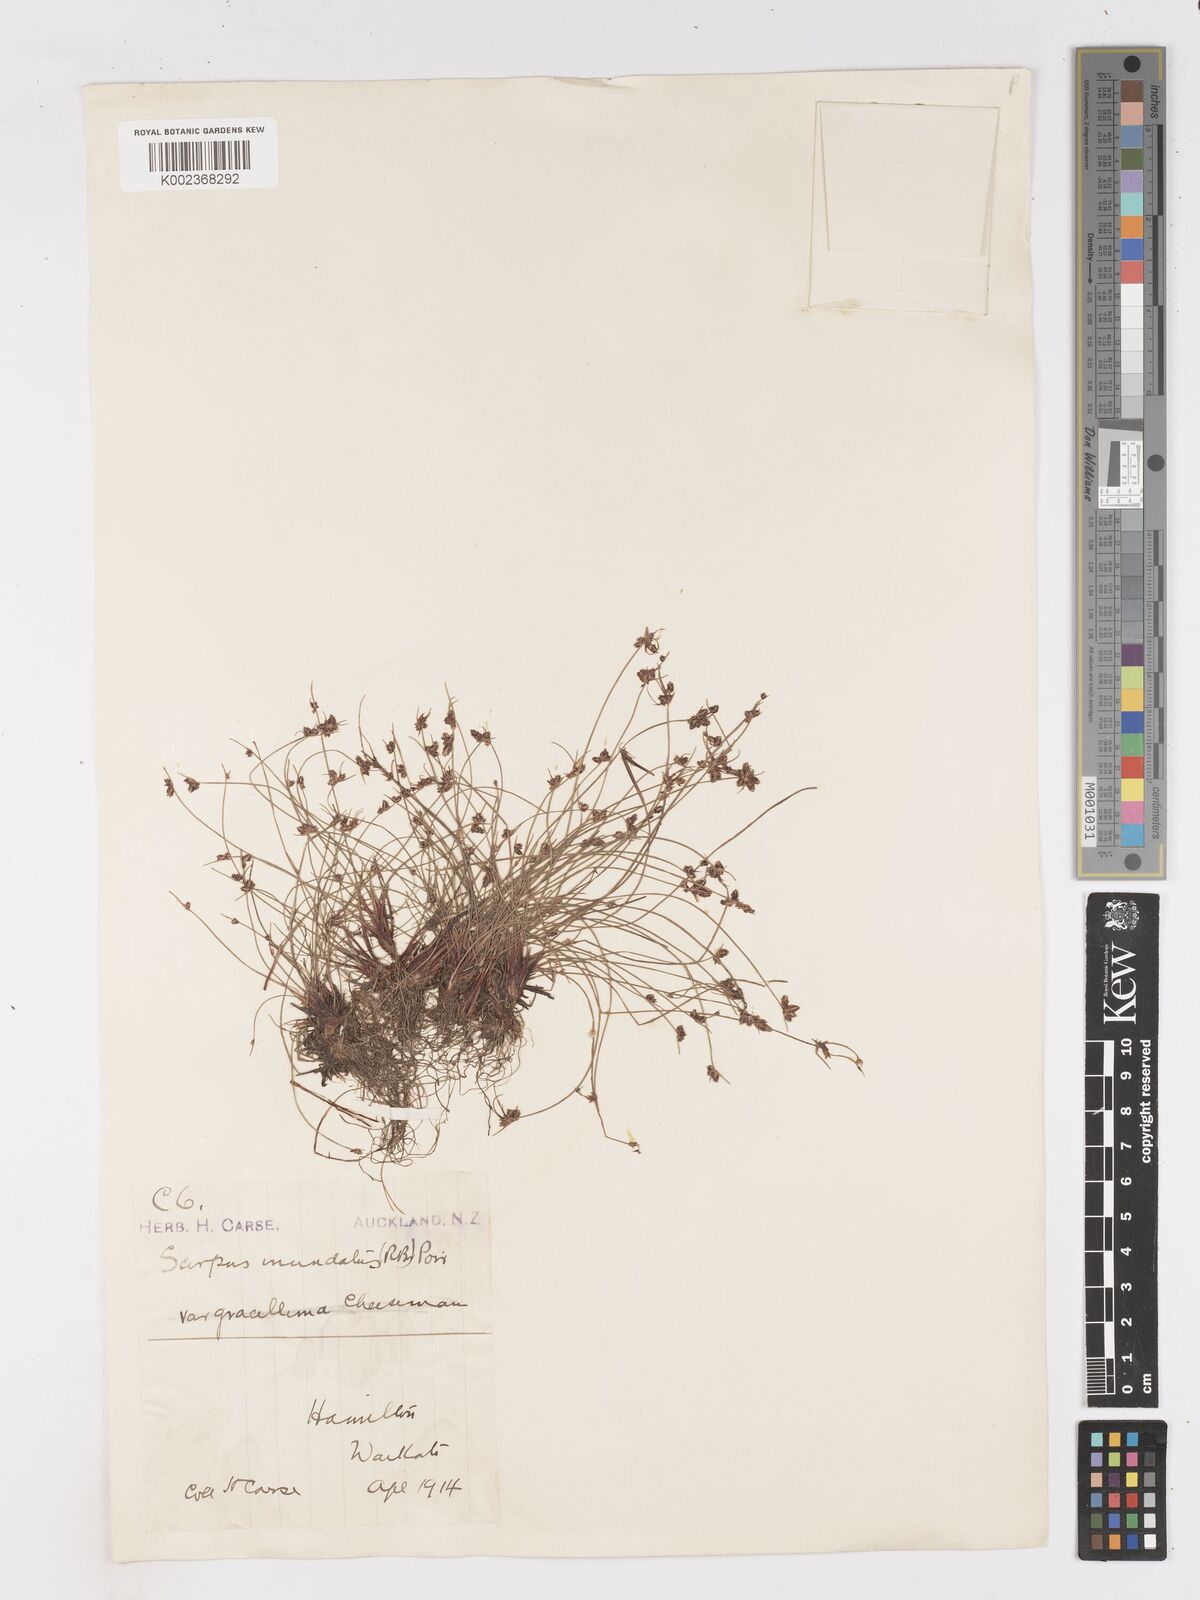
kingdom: Plantae
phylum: Tracheophyta
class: Liliopsida
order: Poales
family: Cyperaceae
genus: Isolepis
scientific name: Isolepis inundata
